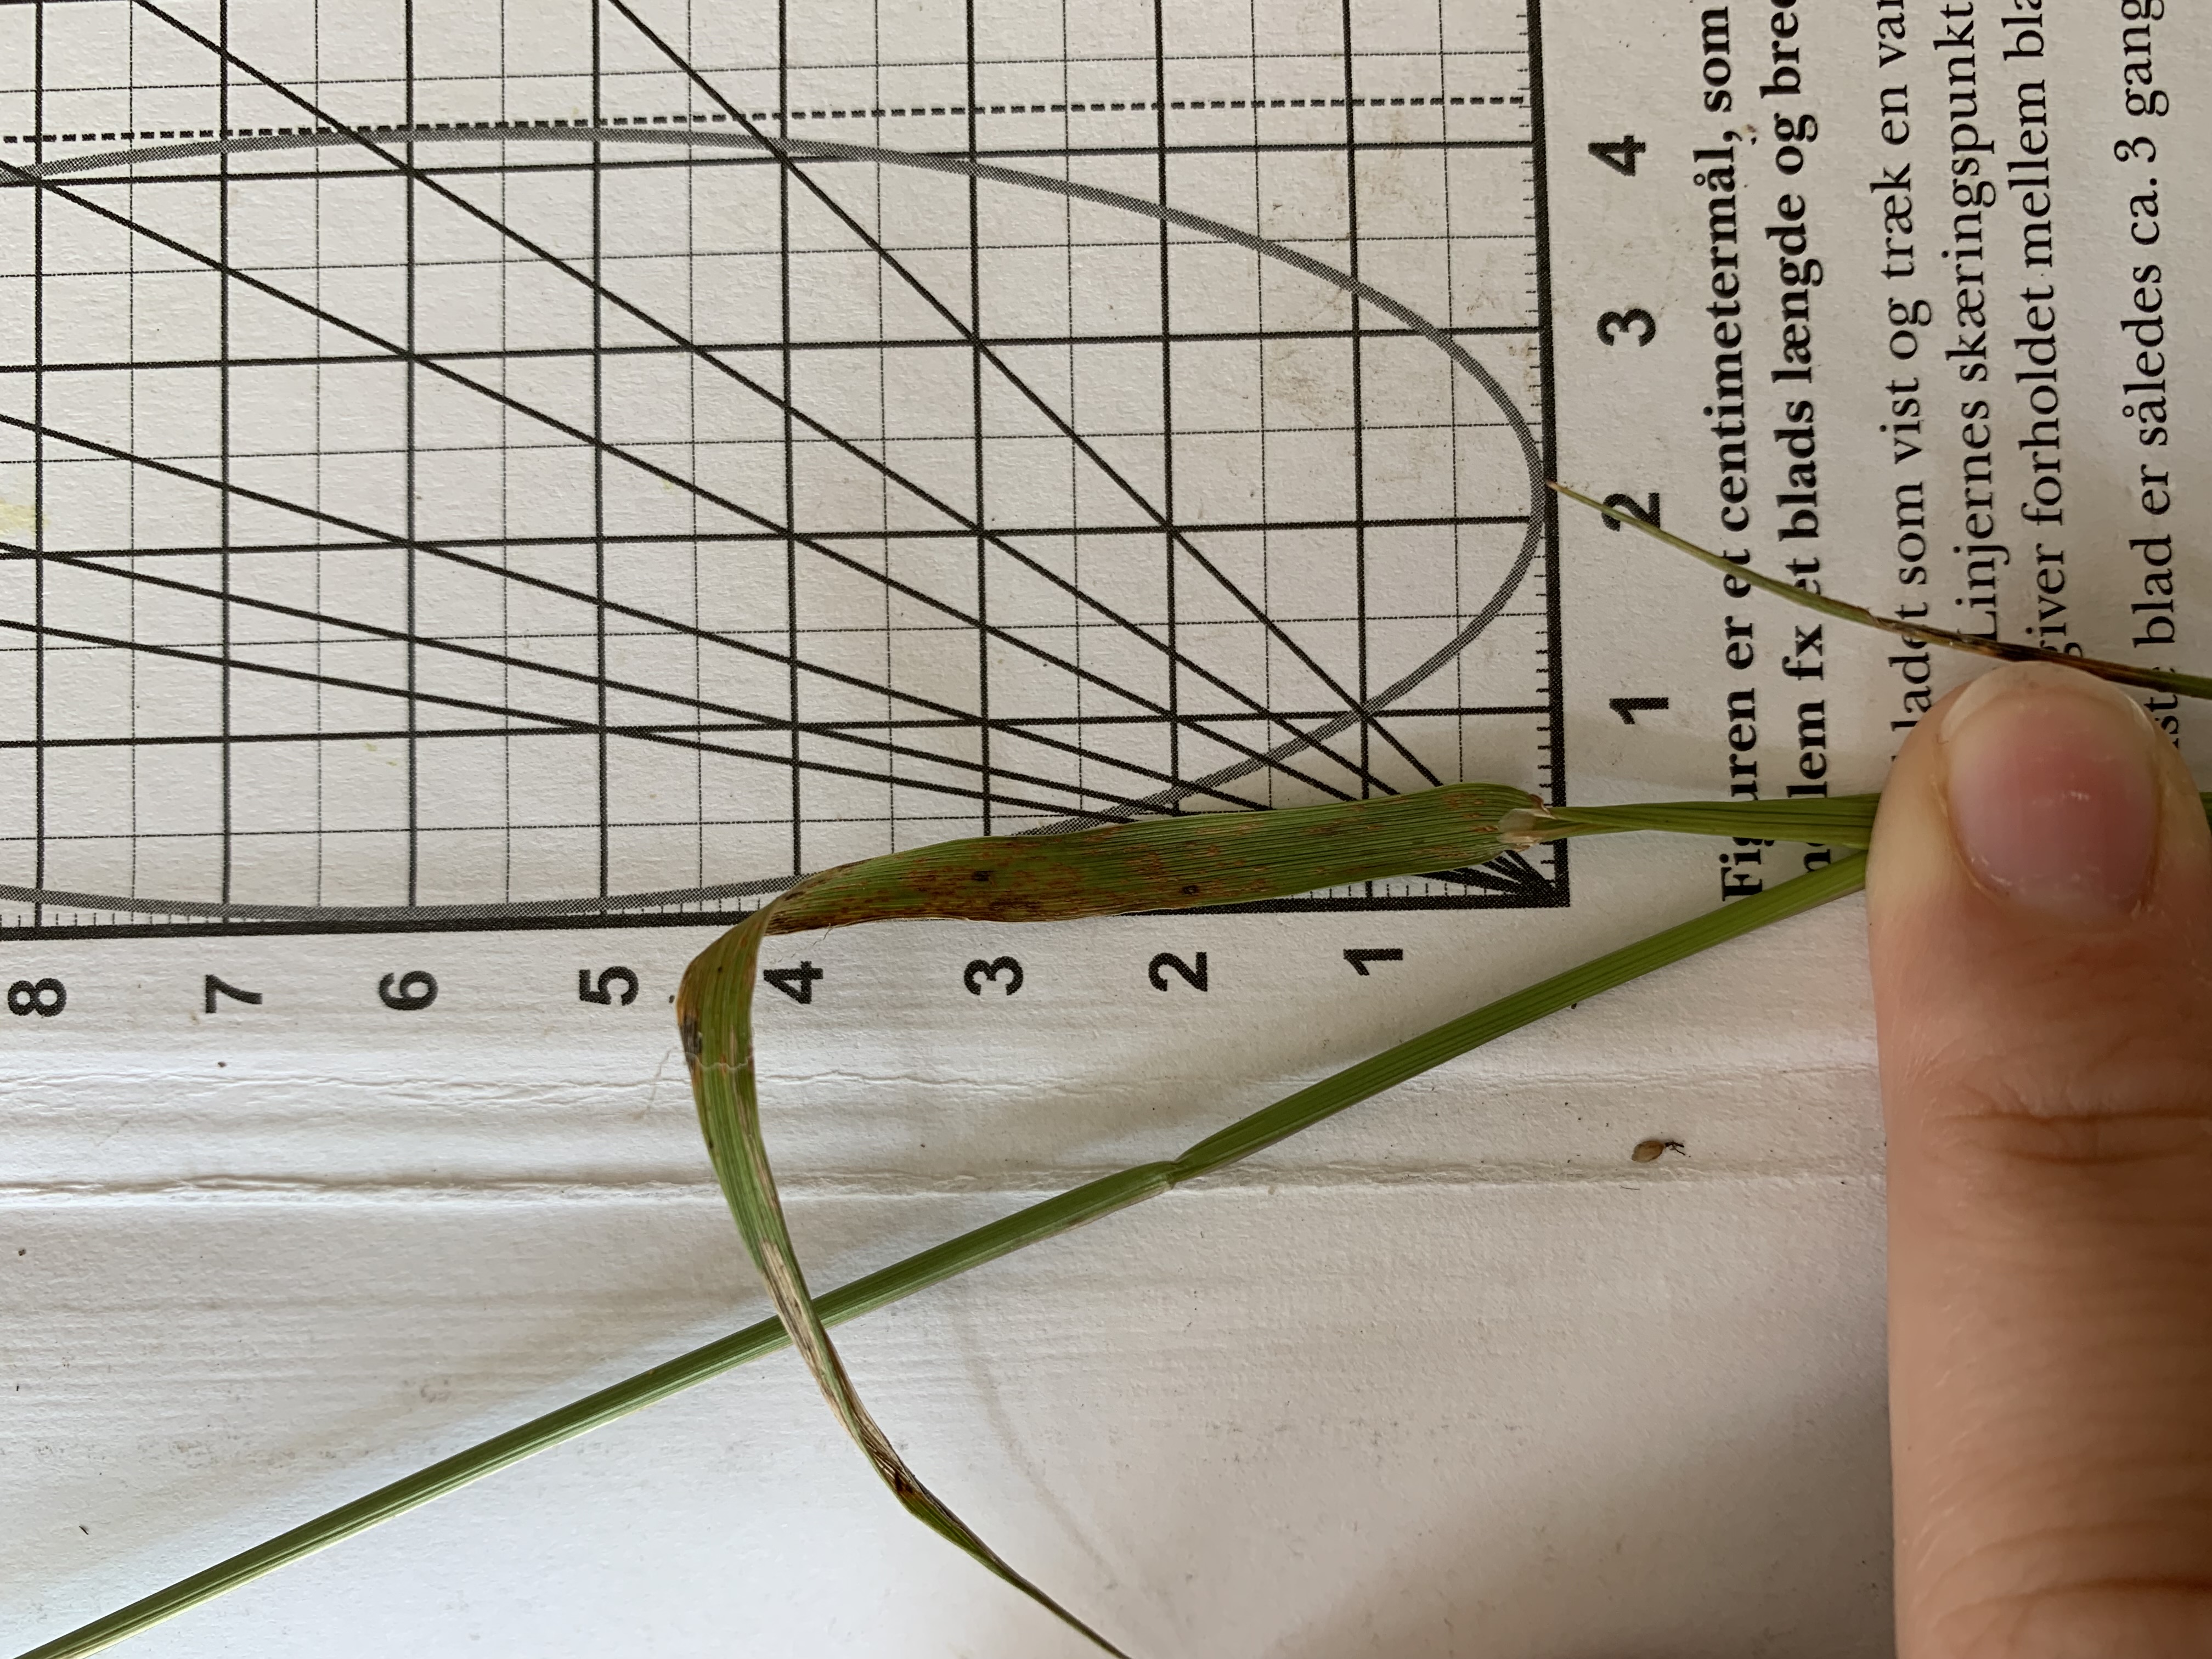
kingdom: Plantae
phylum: Tracheophyta
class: Liliopsida
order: Poales
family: Poaceae
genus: Agrostis
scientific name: Agrostis gigantea
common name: Stortoppet hvene
